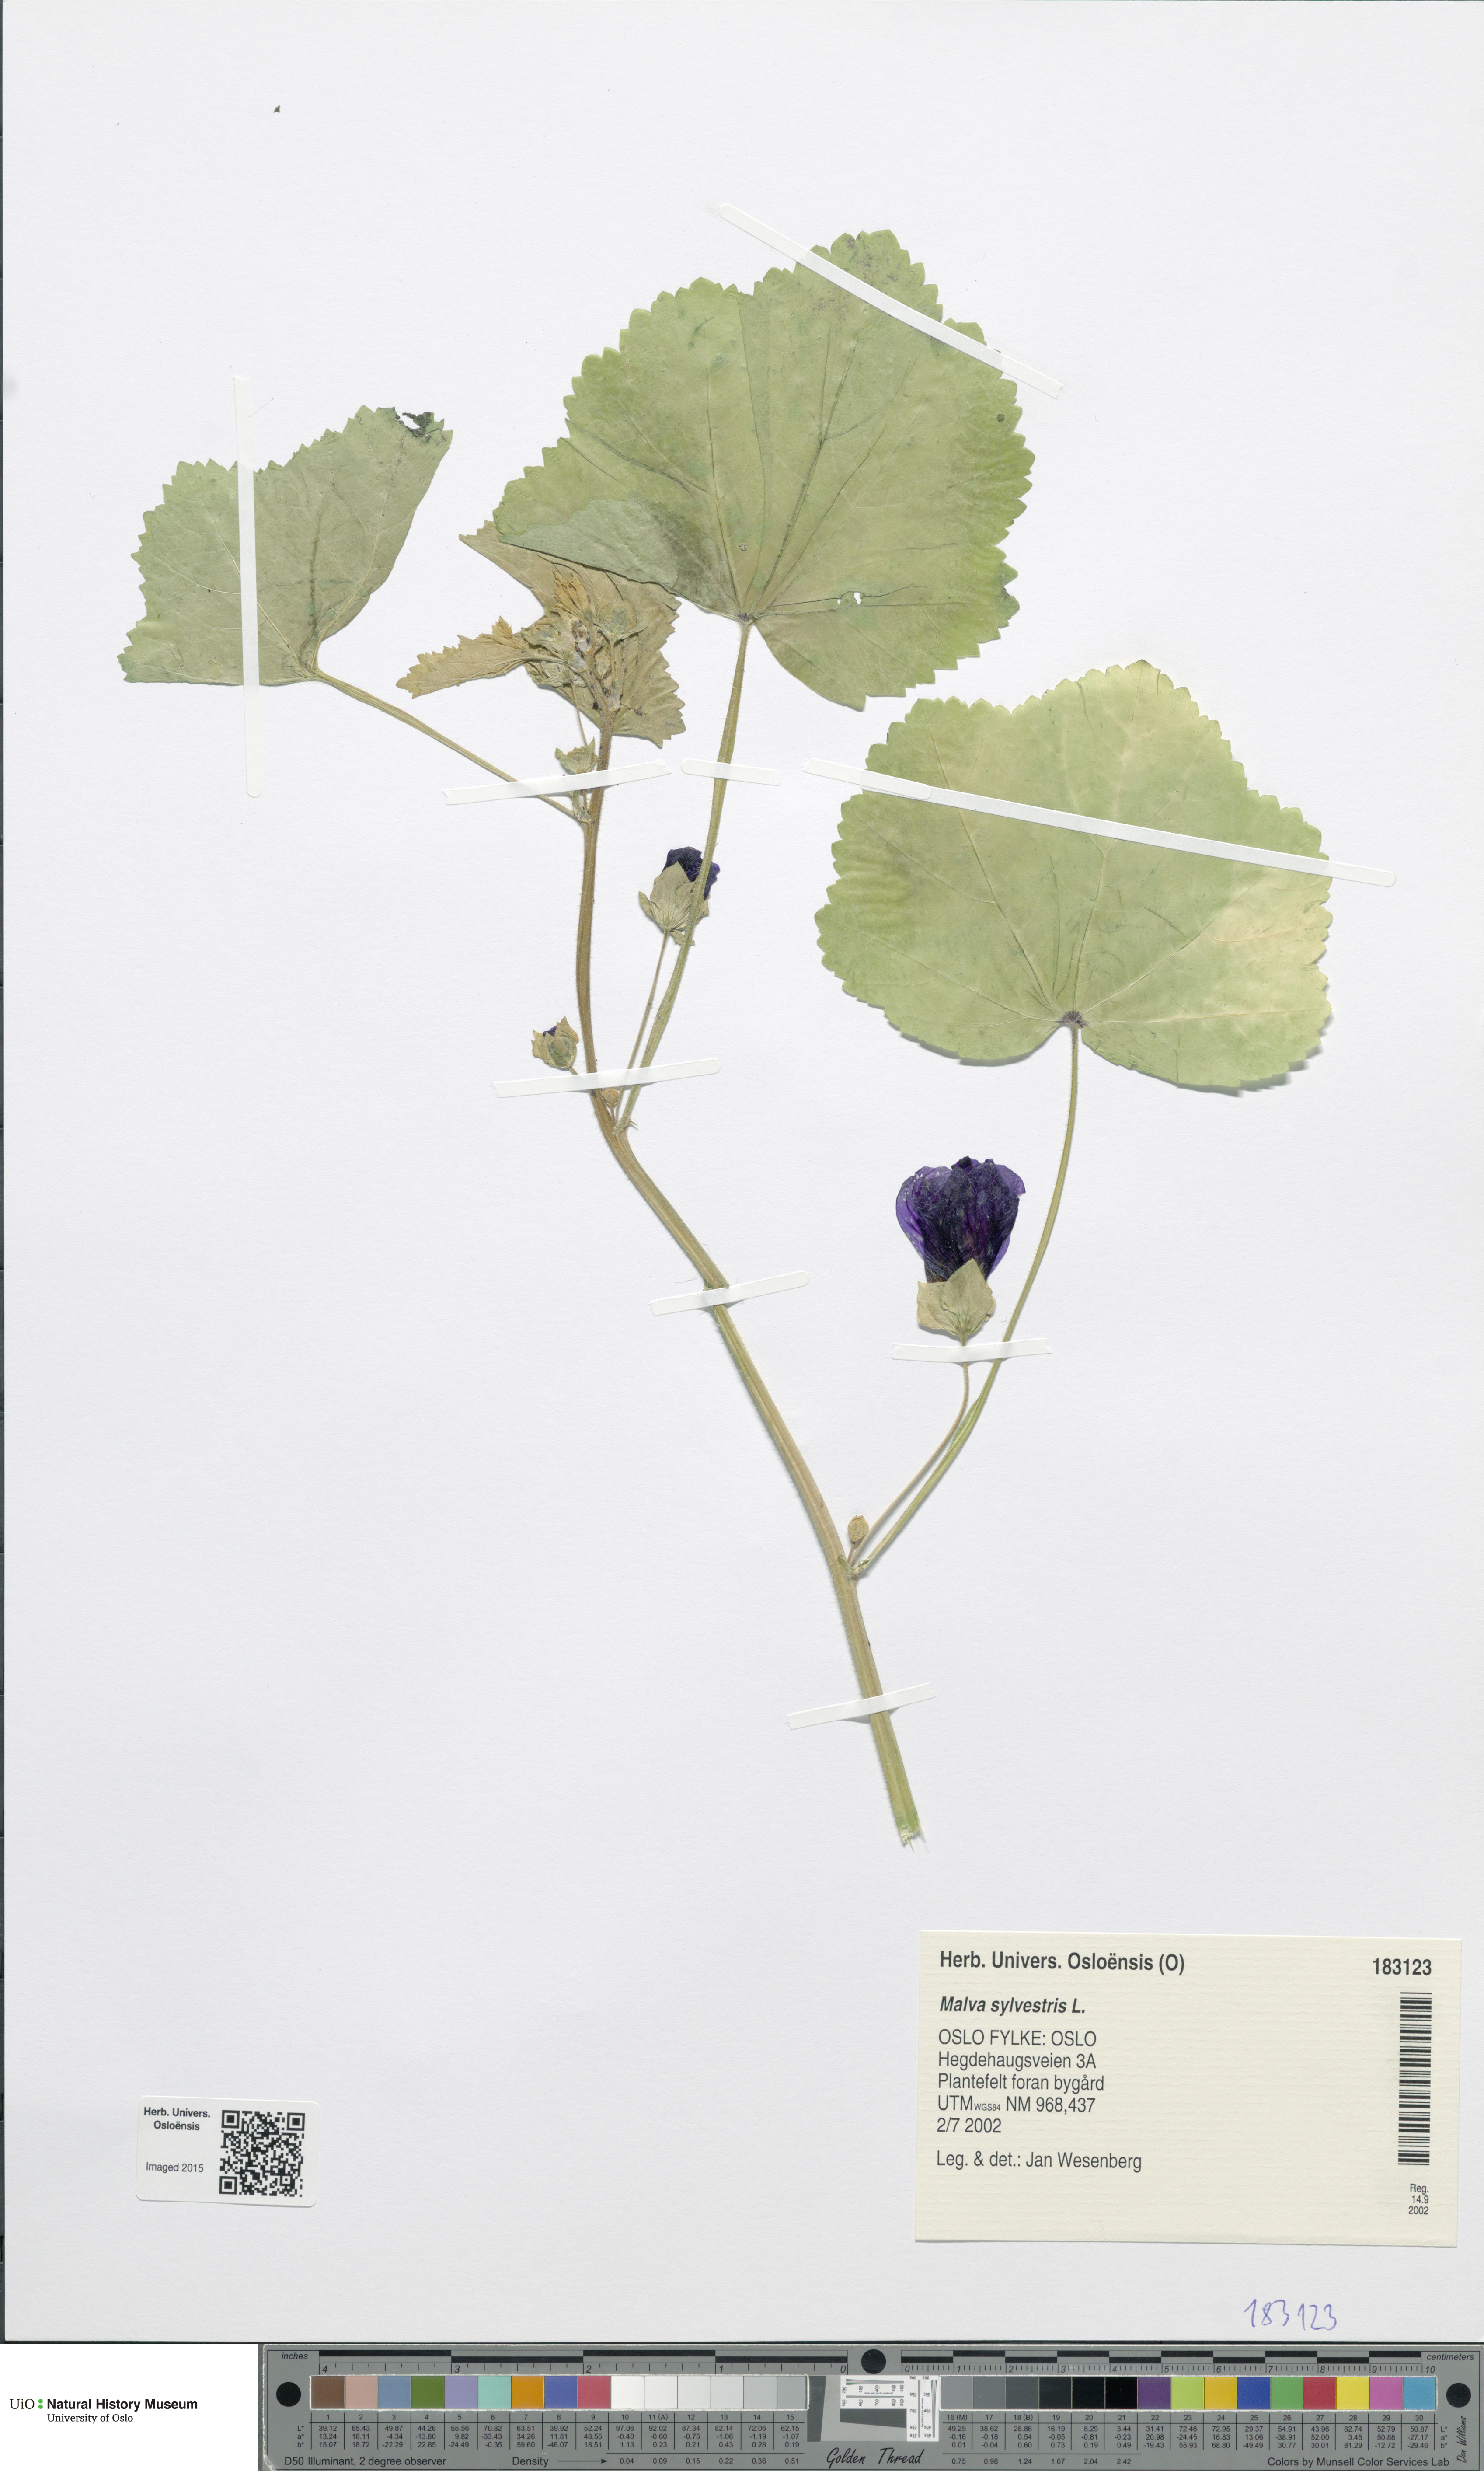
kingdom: Plantae
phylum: Tracheophyta
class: Magnoliopsida
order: Malvales
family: Malvaceae
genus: Malva
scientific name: Malva sylvestris
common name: Common mallow
